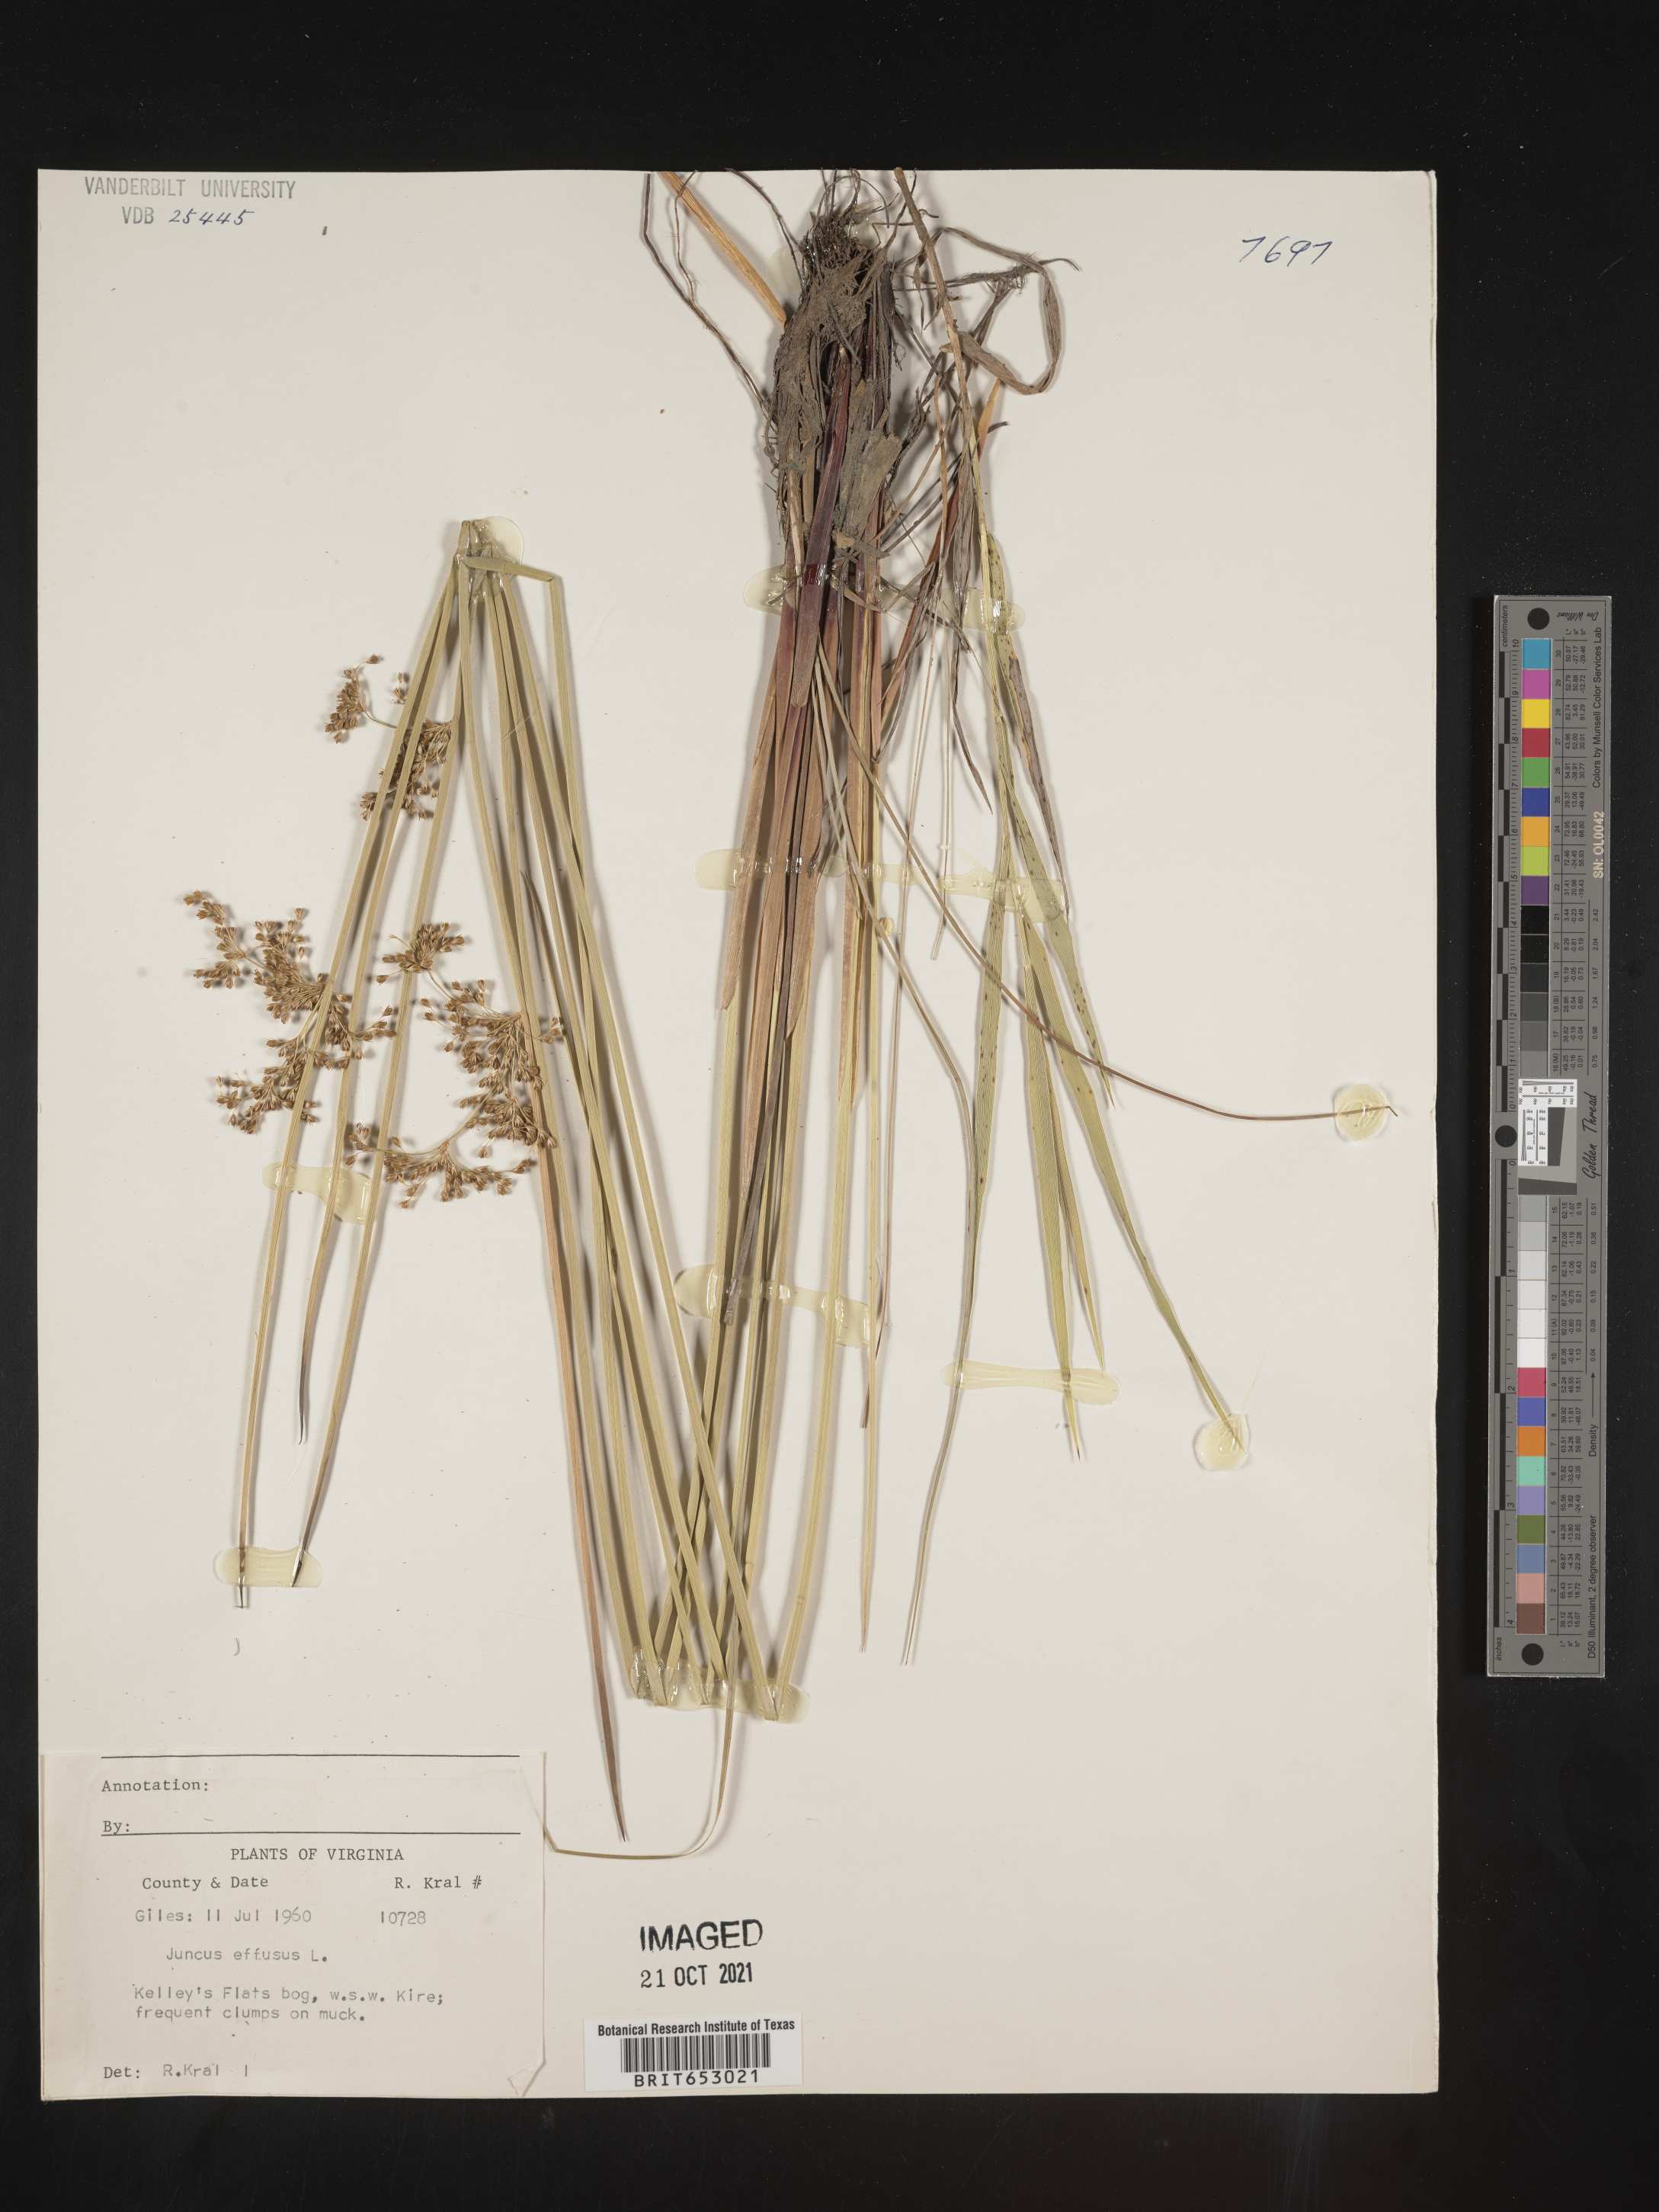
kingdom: Plantae
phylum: Tracheophyta
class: Liliopsida
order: Poales
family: Juncaceae
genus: Juncus
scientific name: Juncus effusus
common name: Soft rush
